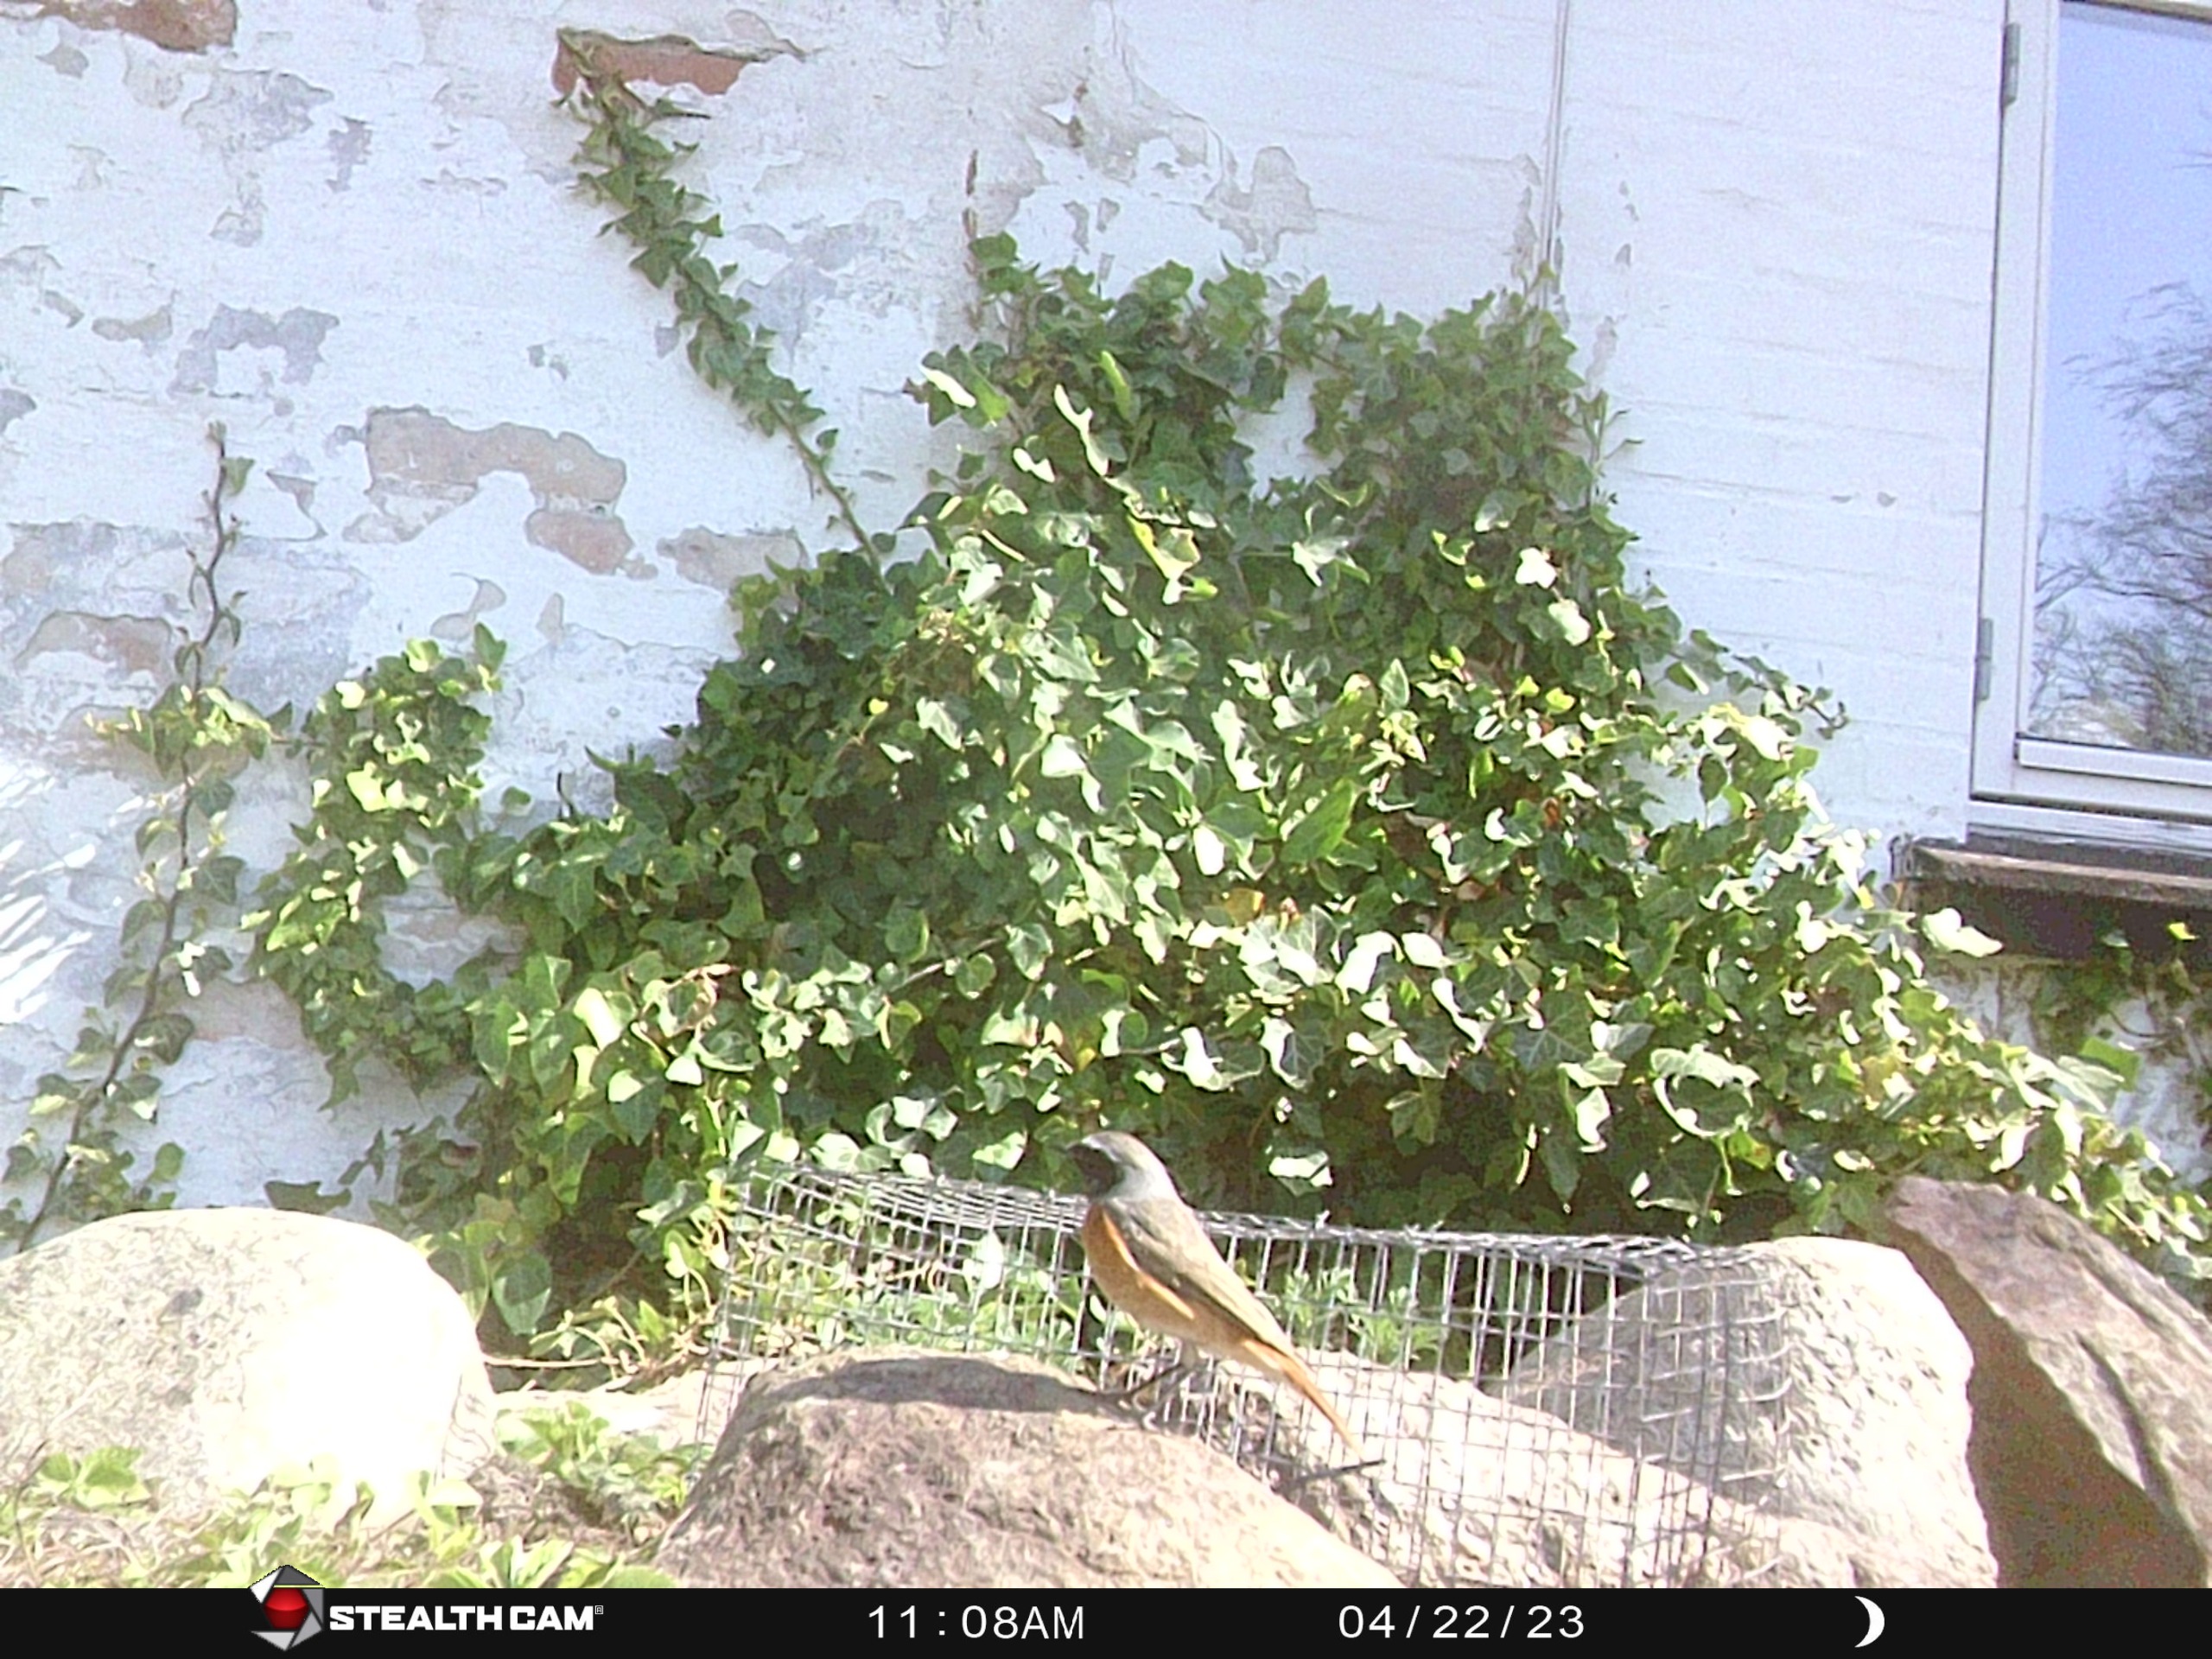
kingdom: Animalia
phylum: Chordata
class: Aves
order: Passeriformes
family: Muscicapidae
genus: Phoenicurus
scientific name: Phoenicurus phoenicurus
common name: Rødstjert
